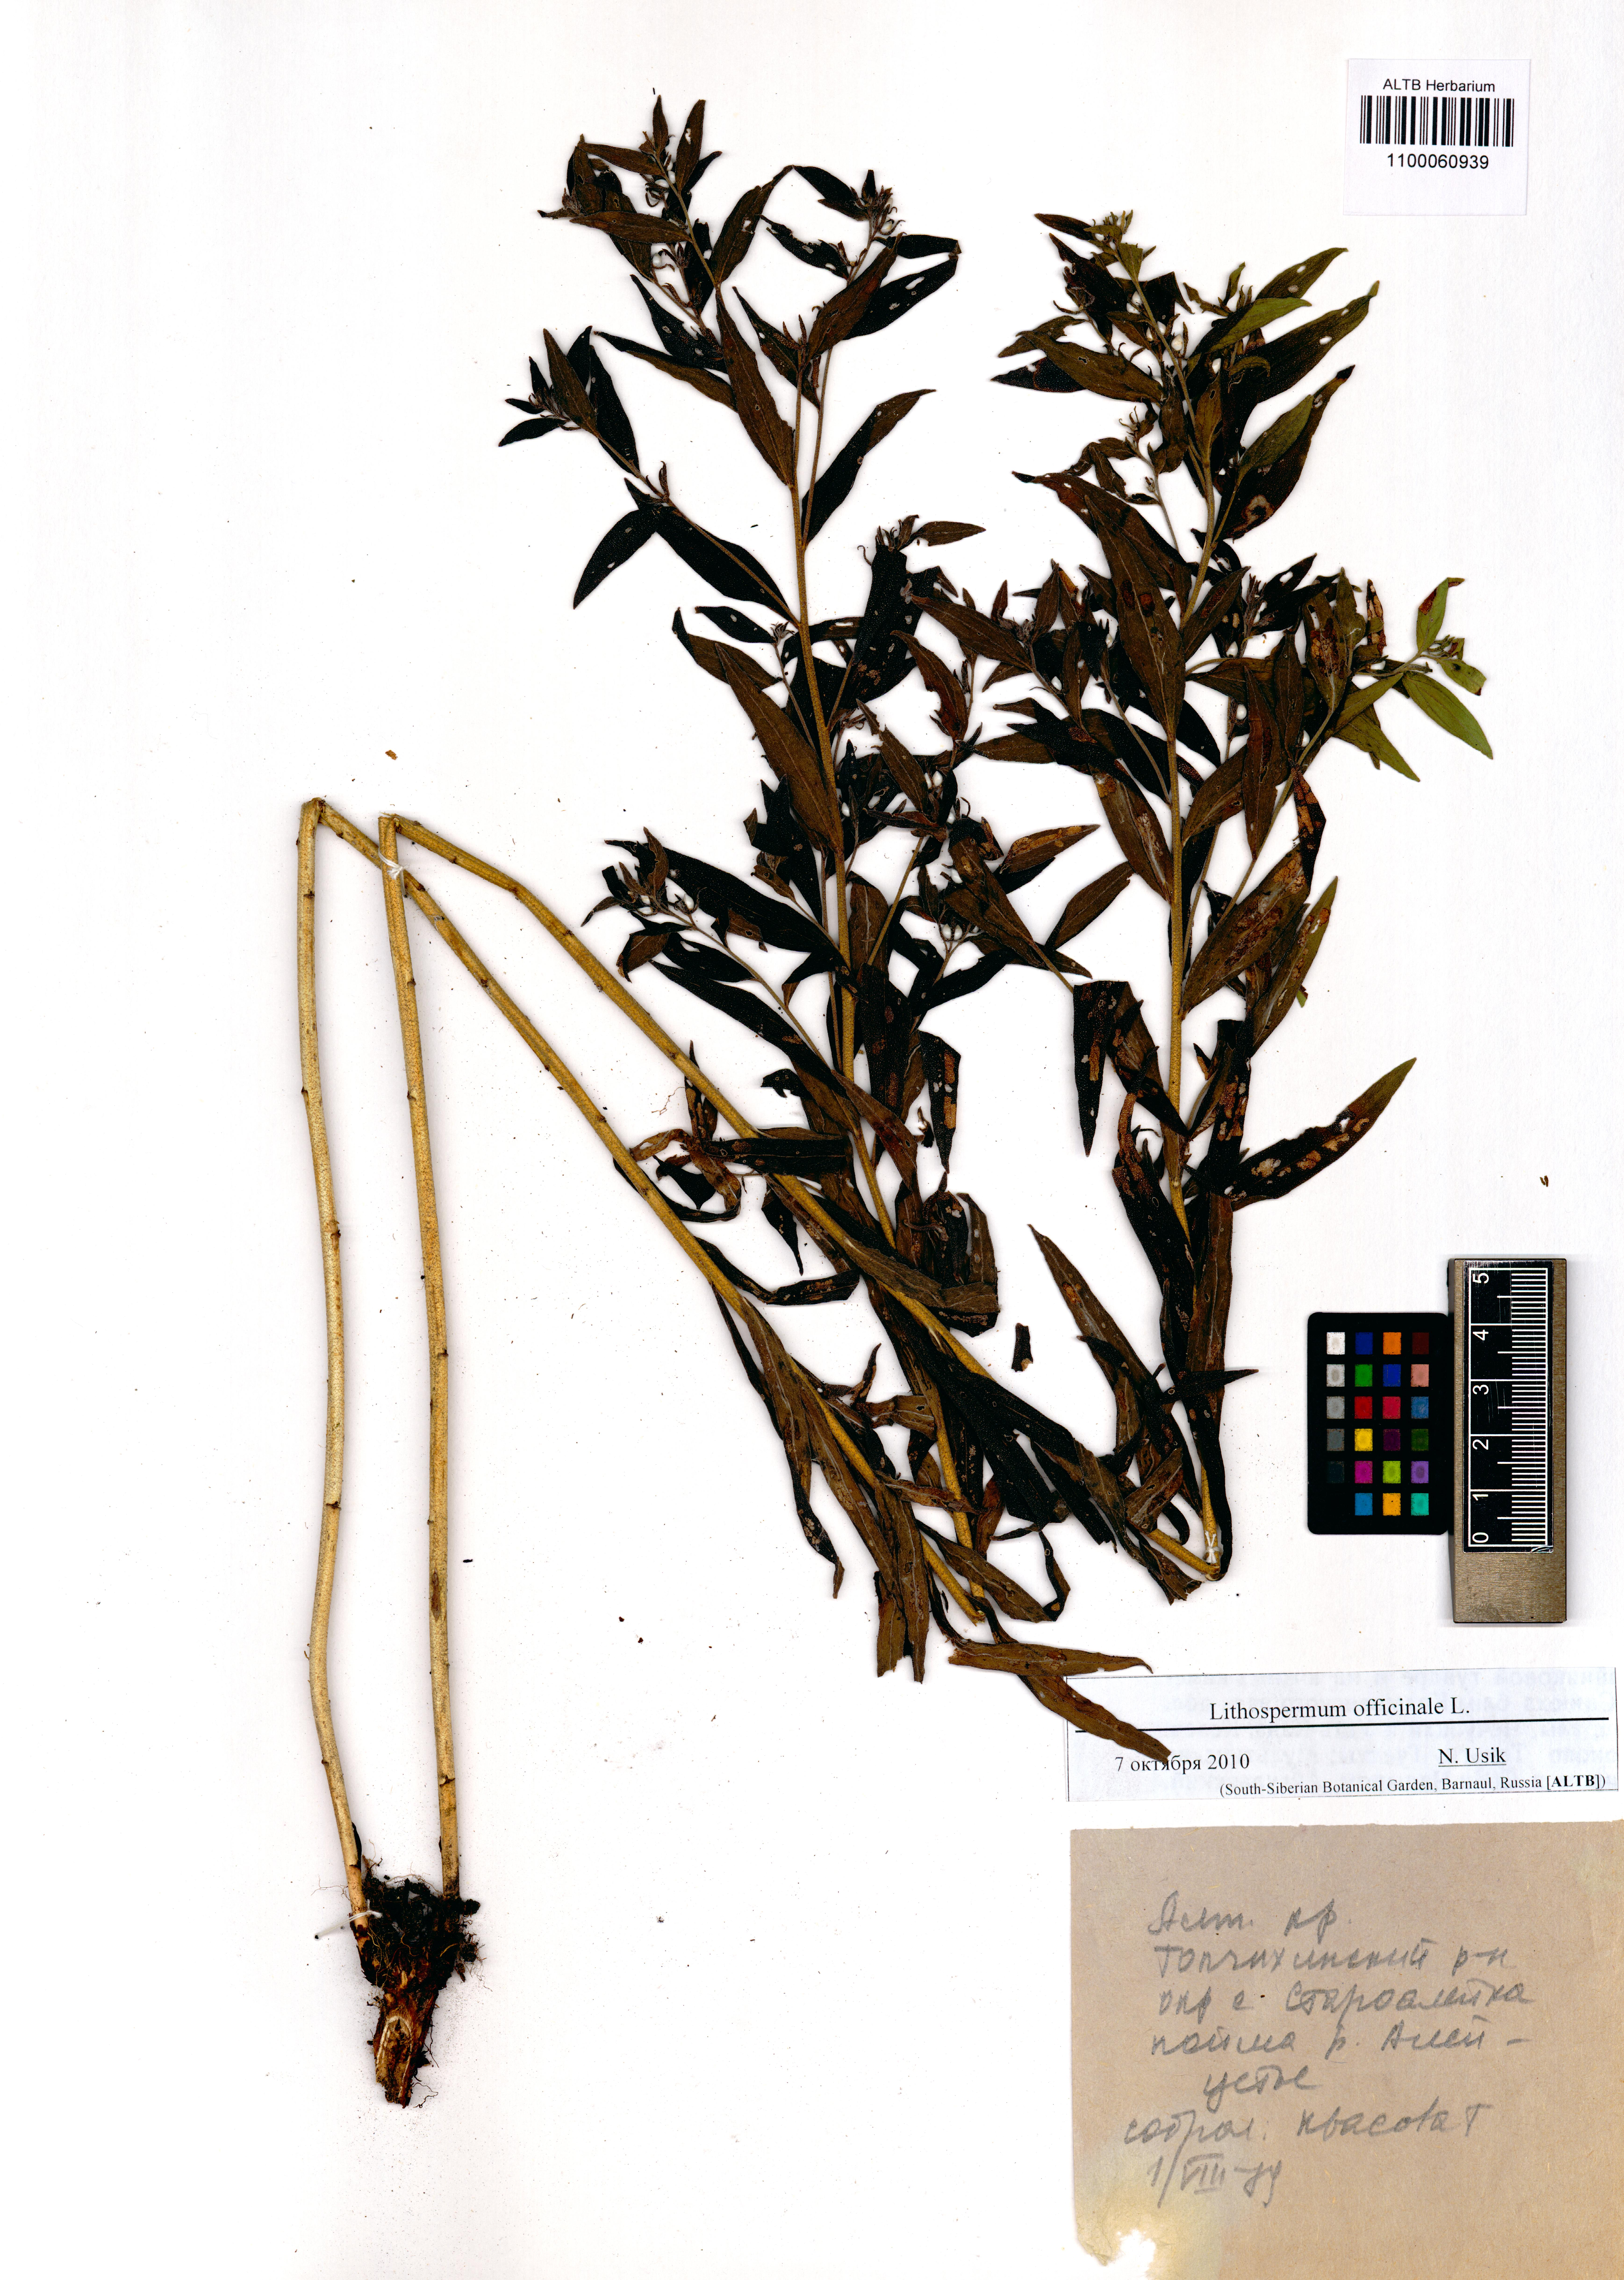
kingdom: Plantae
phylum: Tracheophyta
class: Magnoliopsida
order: Boraginales
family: Boraginaceae
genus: Lithospermum
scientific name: Lithospermum officinale
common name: Common gromwell
